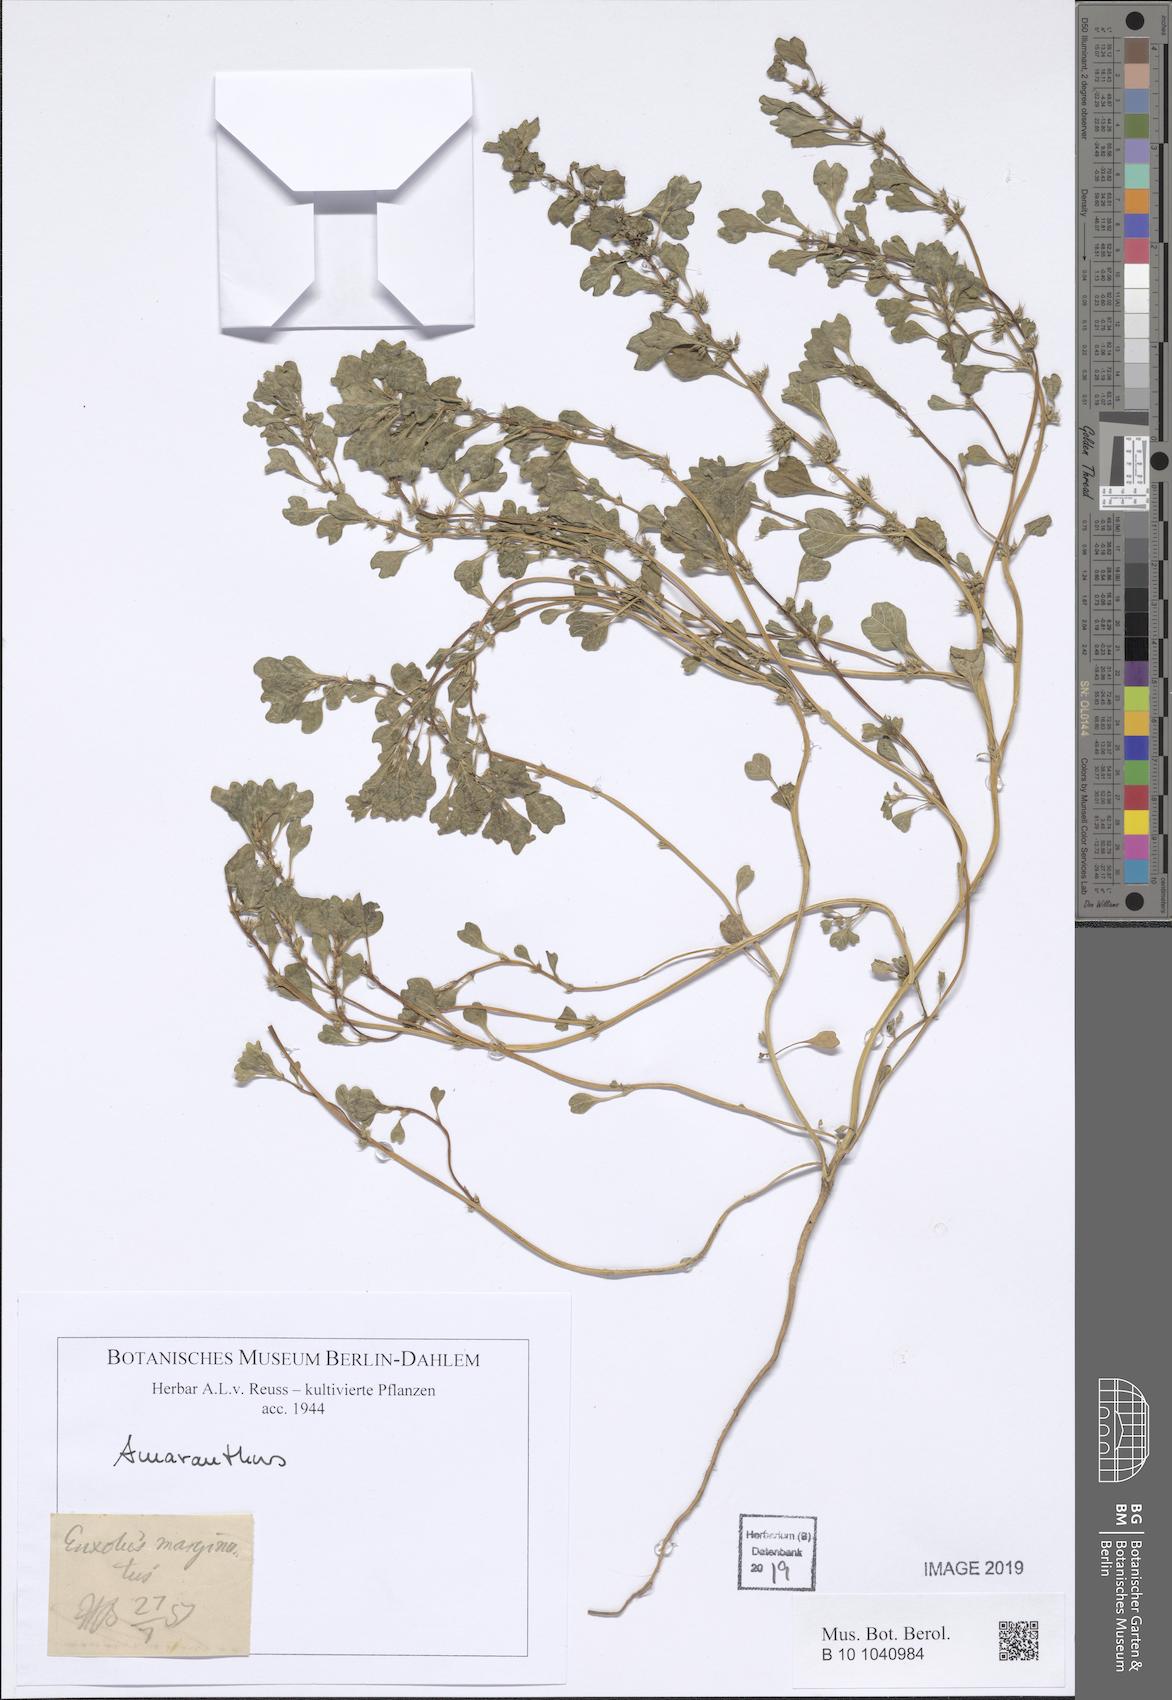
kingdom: Plantae
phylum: Tracheophyta
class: Magnoliopsida
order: Caryophyllales
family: Amaranthaceae
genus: Amaranthus
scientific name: Amaranthus
